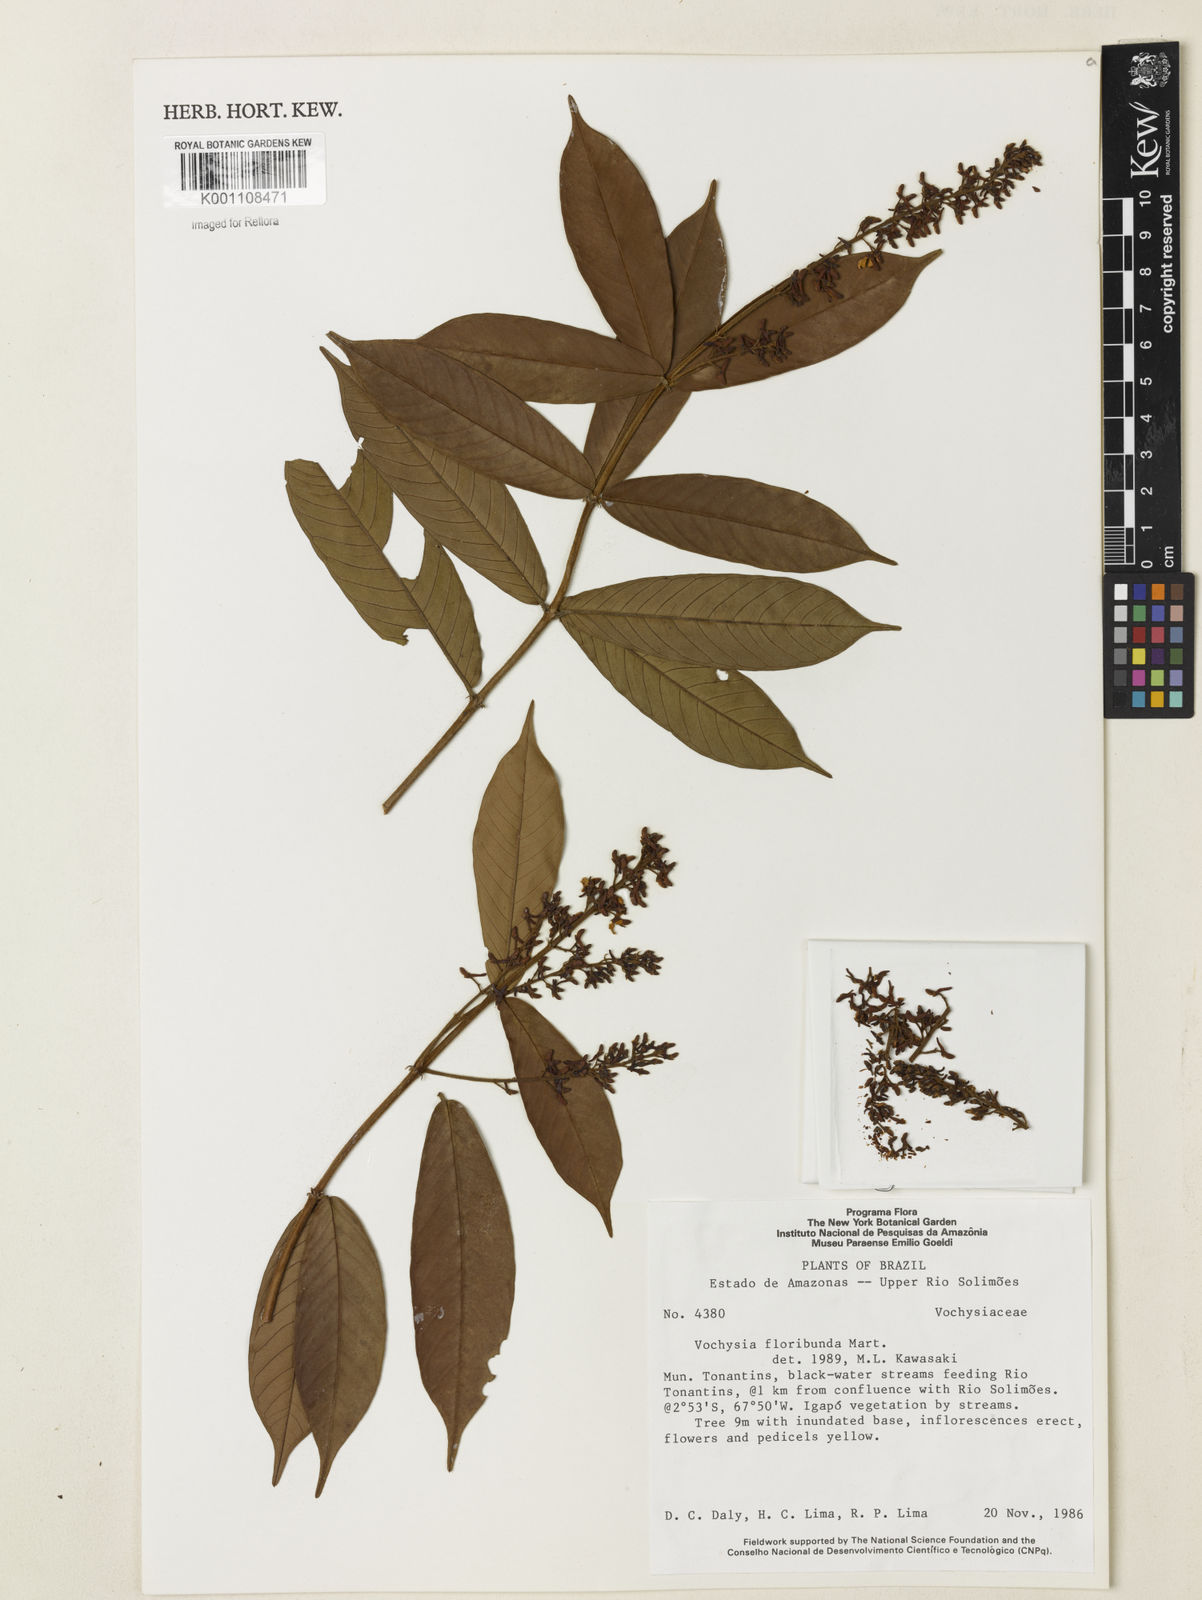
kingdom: Plantae
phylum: Tracheophyta
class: Magnoliopsida
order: Myrtales
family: Vochysiaceae
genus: Vochysia
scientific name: Vochysia floribunda
